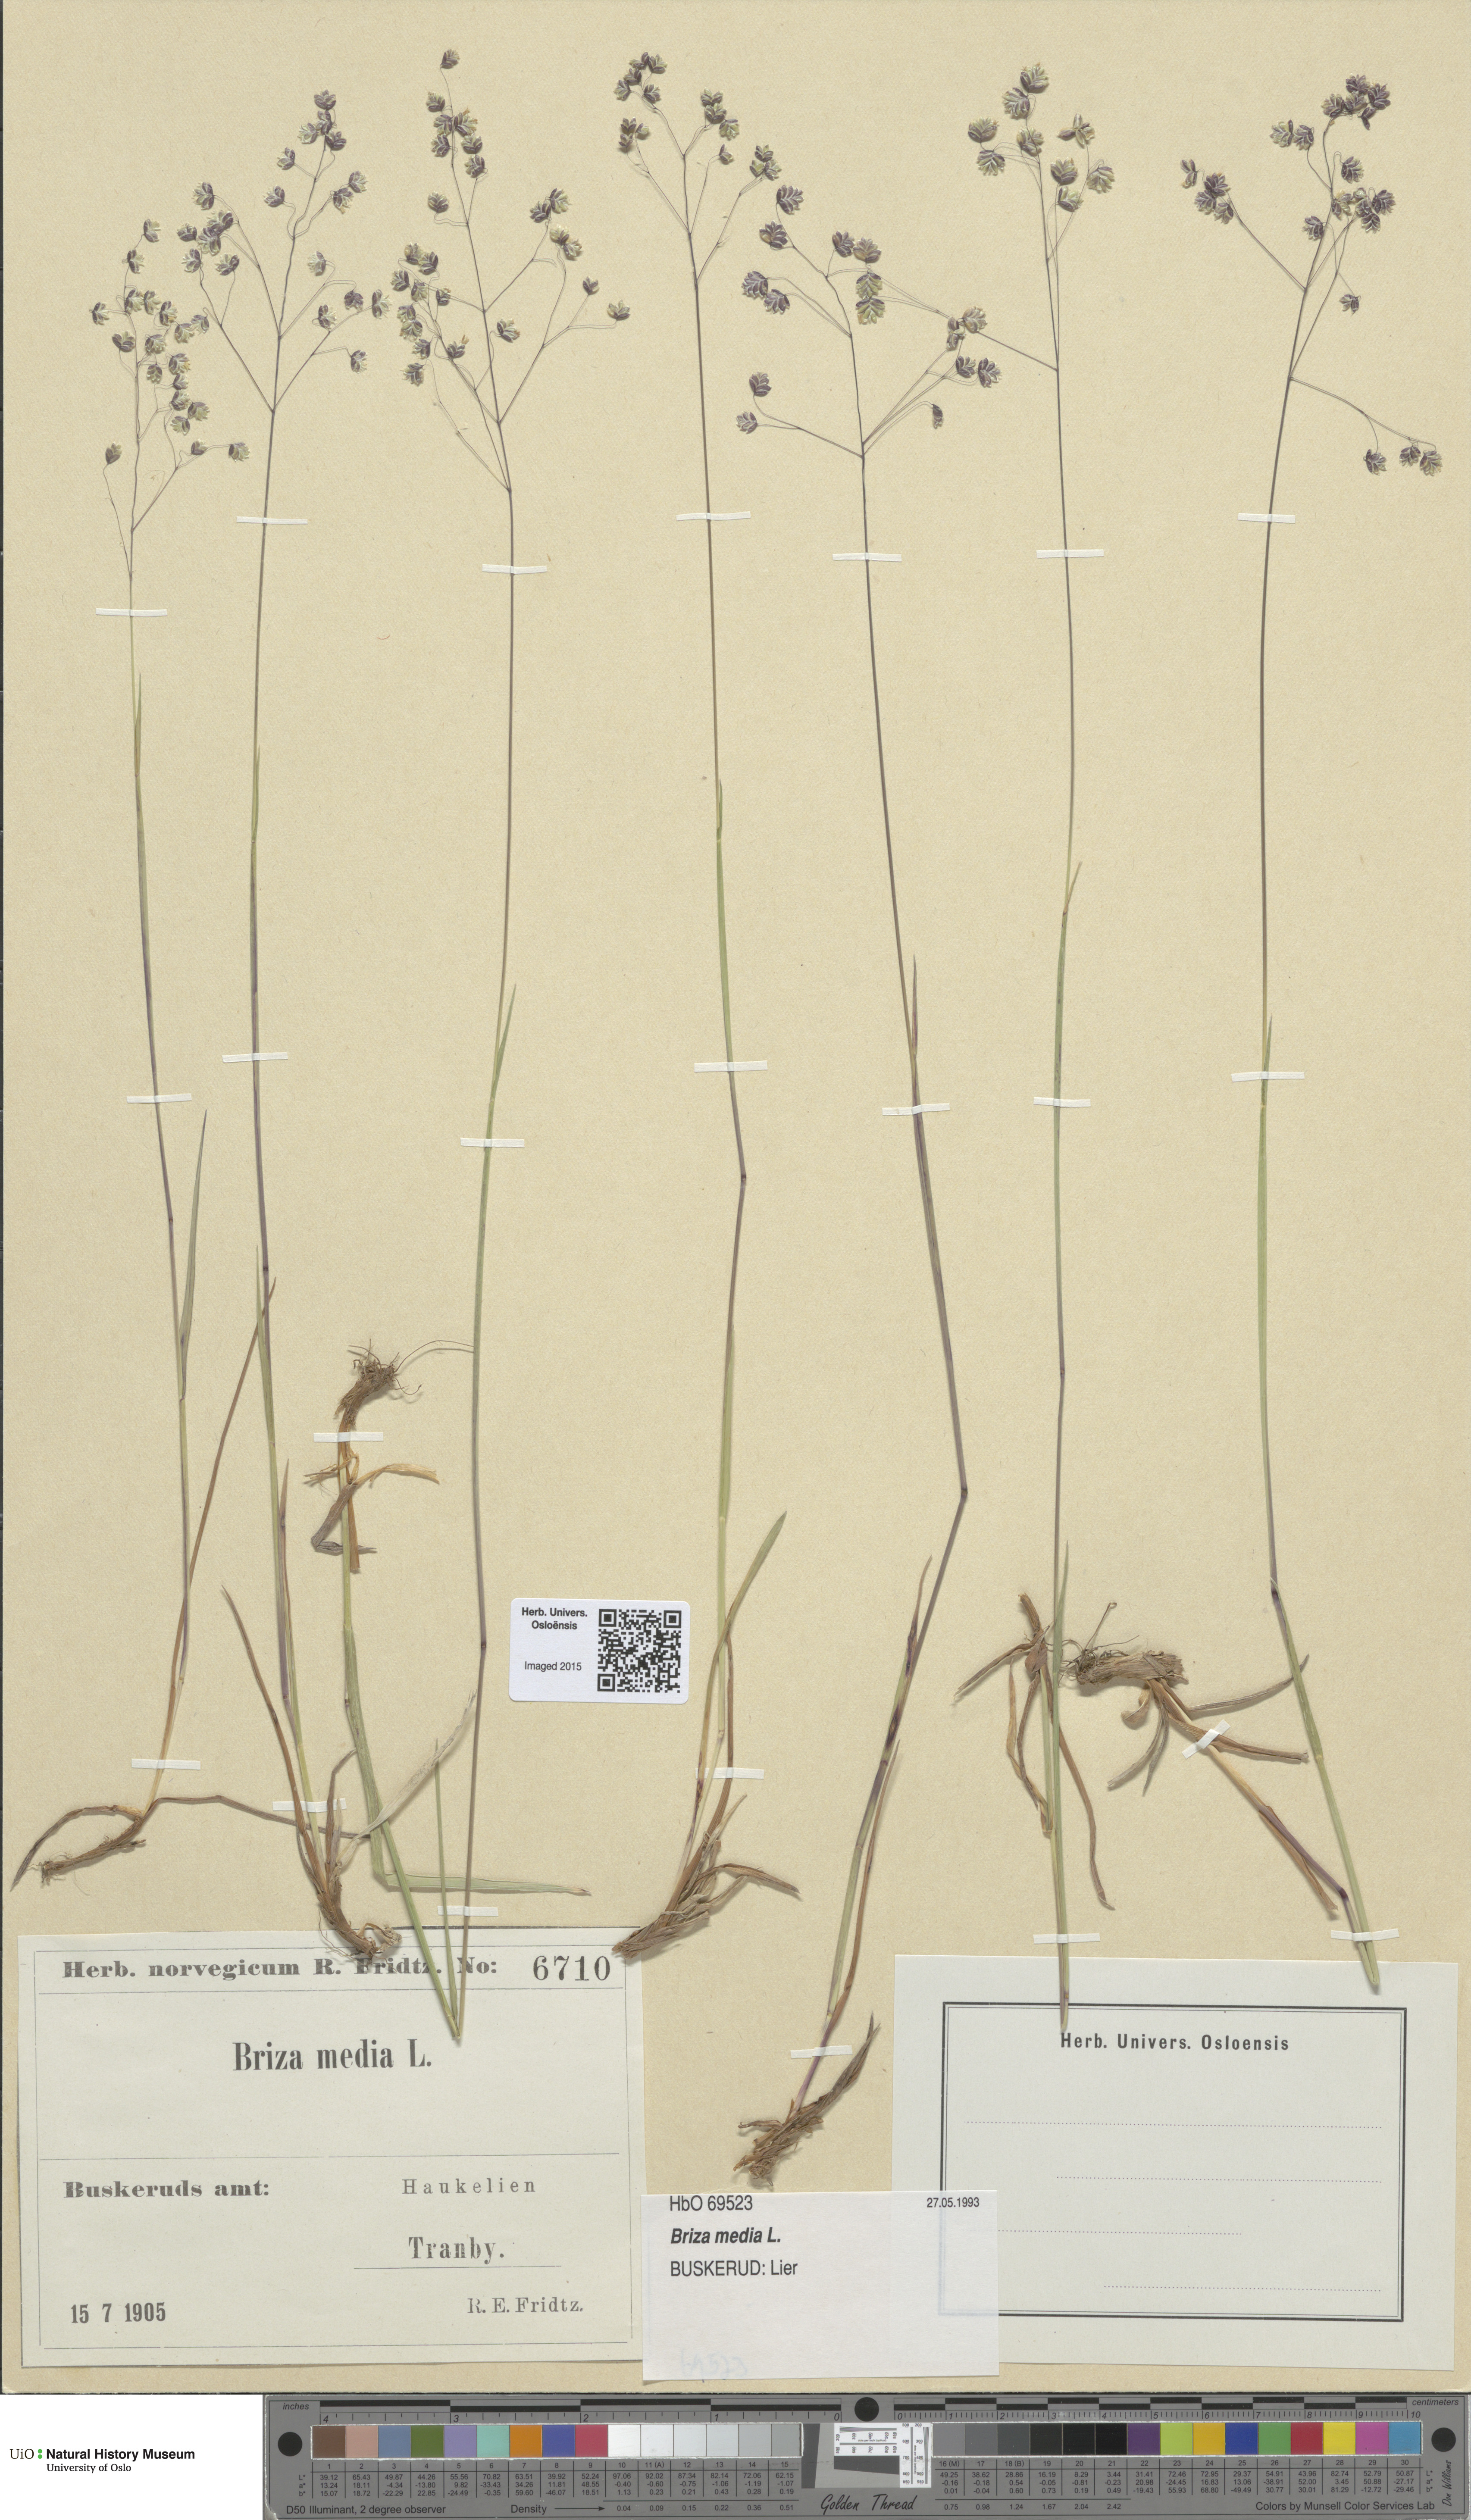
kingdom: Plantae
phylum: Tracheophyta
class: Liliopsida
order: Poales
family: Poaceae
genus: Briza
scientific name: Briza media
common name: Quaking grass
